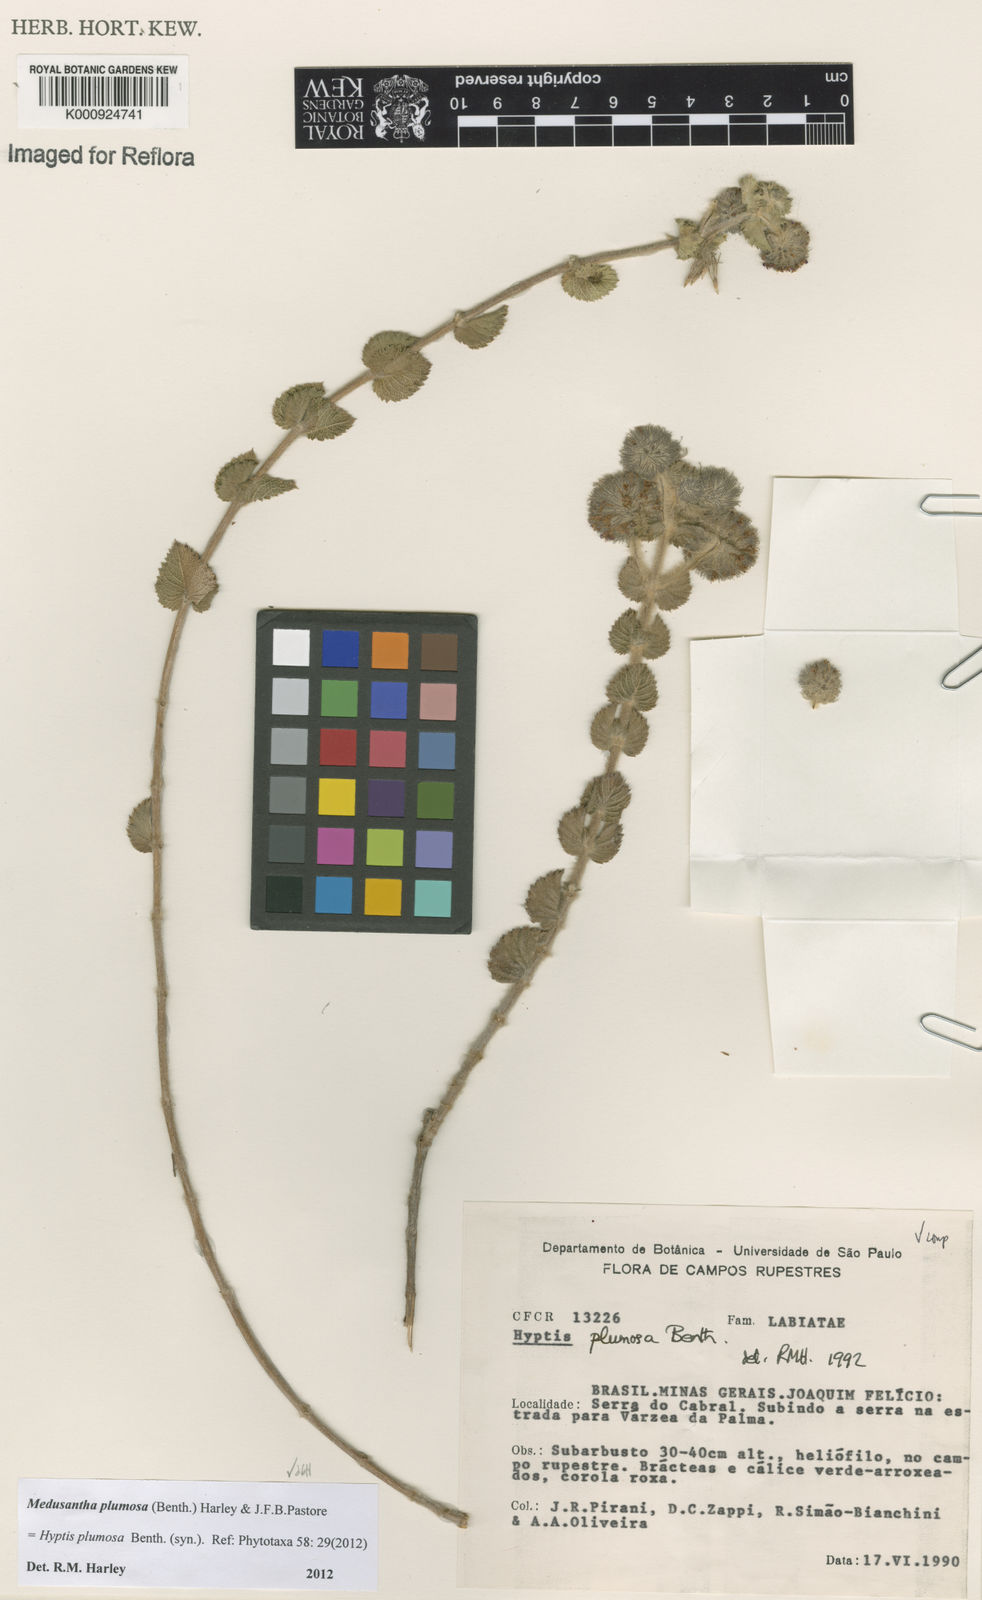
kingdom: Plantae
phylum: Tracheophyta
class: Magnoliopsida
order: Lamiales
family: Lamiaceae
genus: Medusantha
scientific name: Medusantha plumosa
